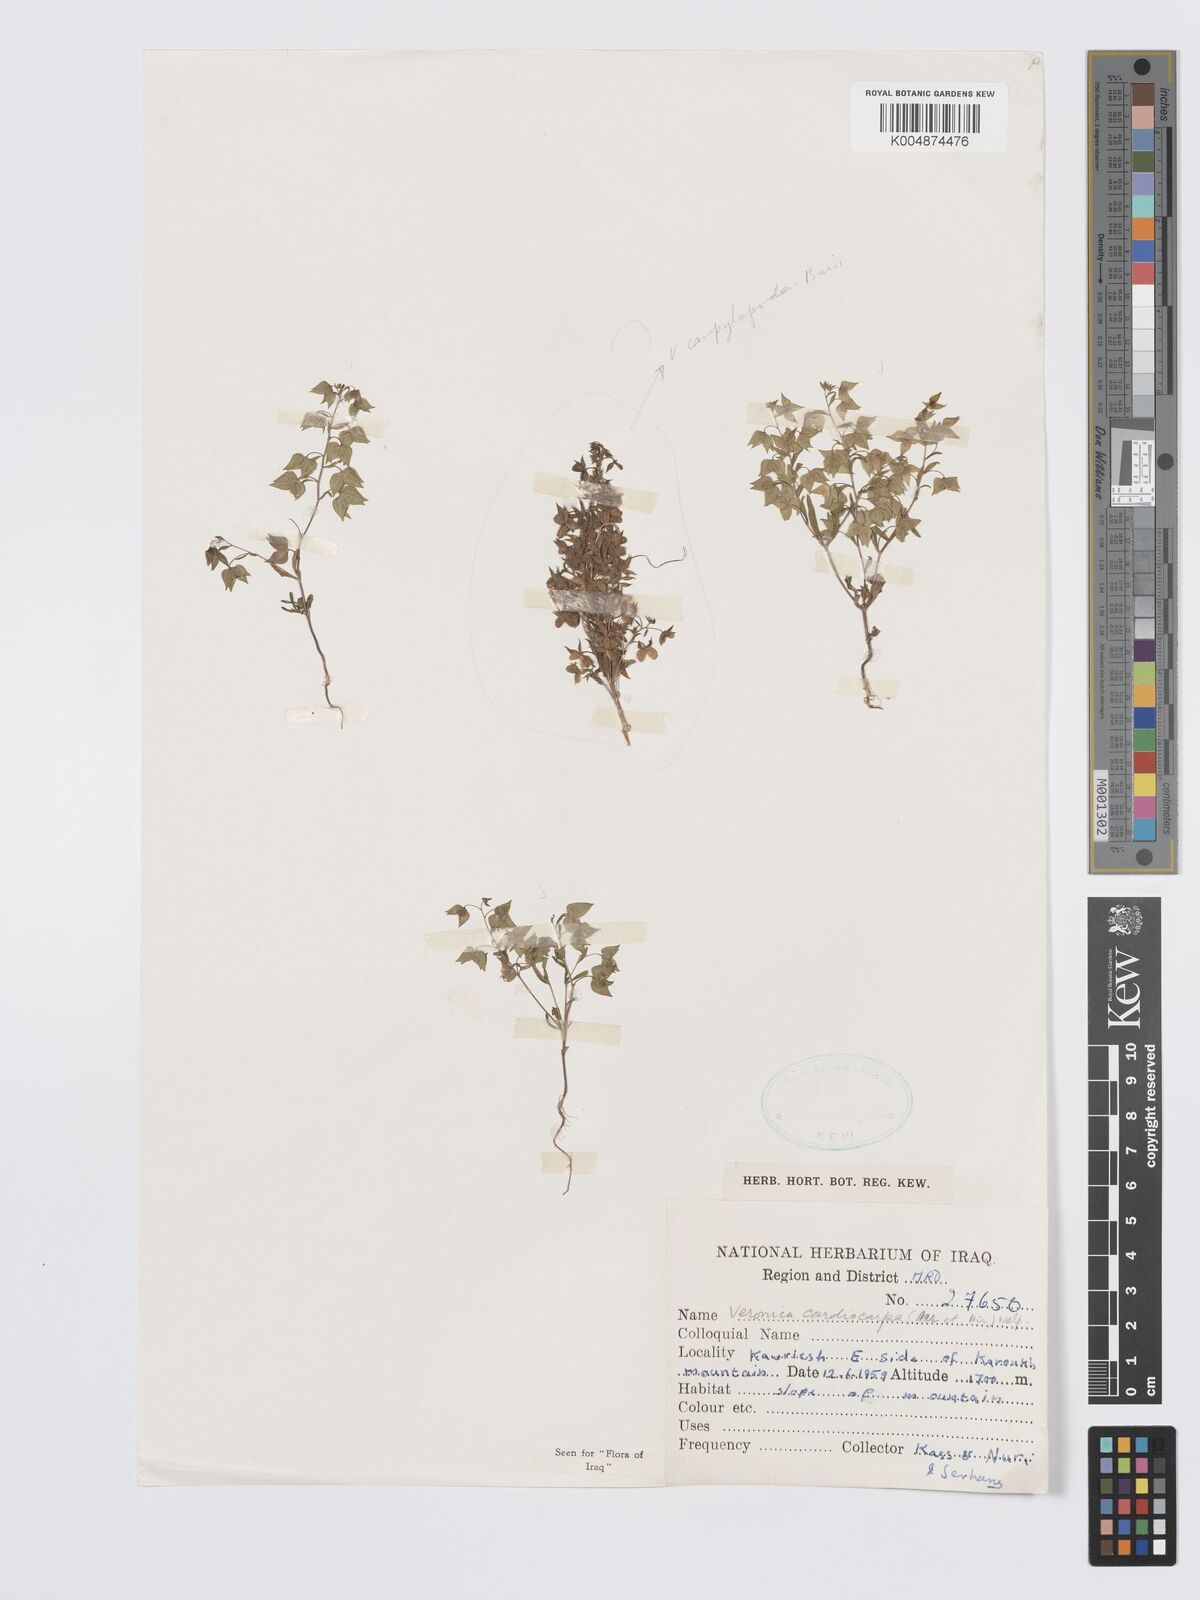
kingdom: Plantae
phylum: Tracheophyta
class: Magnoliopsida
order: Lamiales
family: Plantaginaceae
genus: Veronica
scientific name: Veronica intercedens
